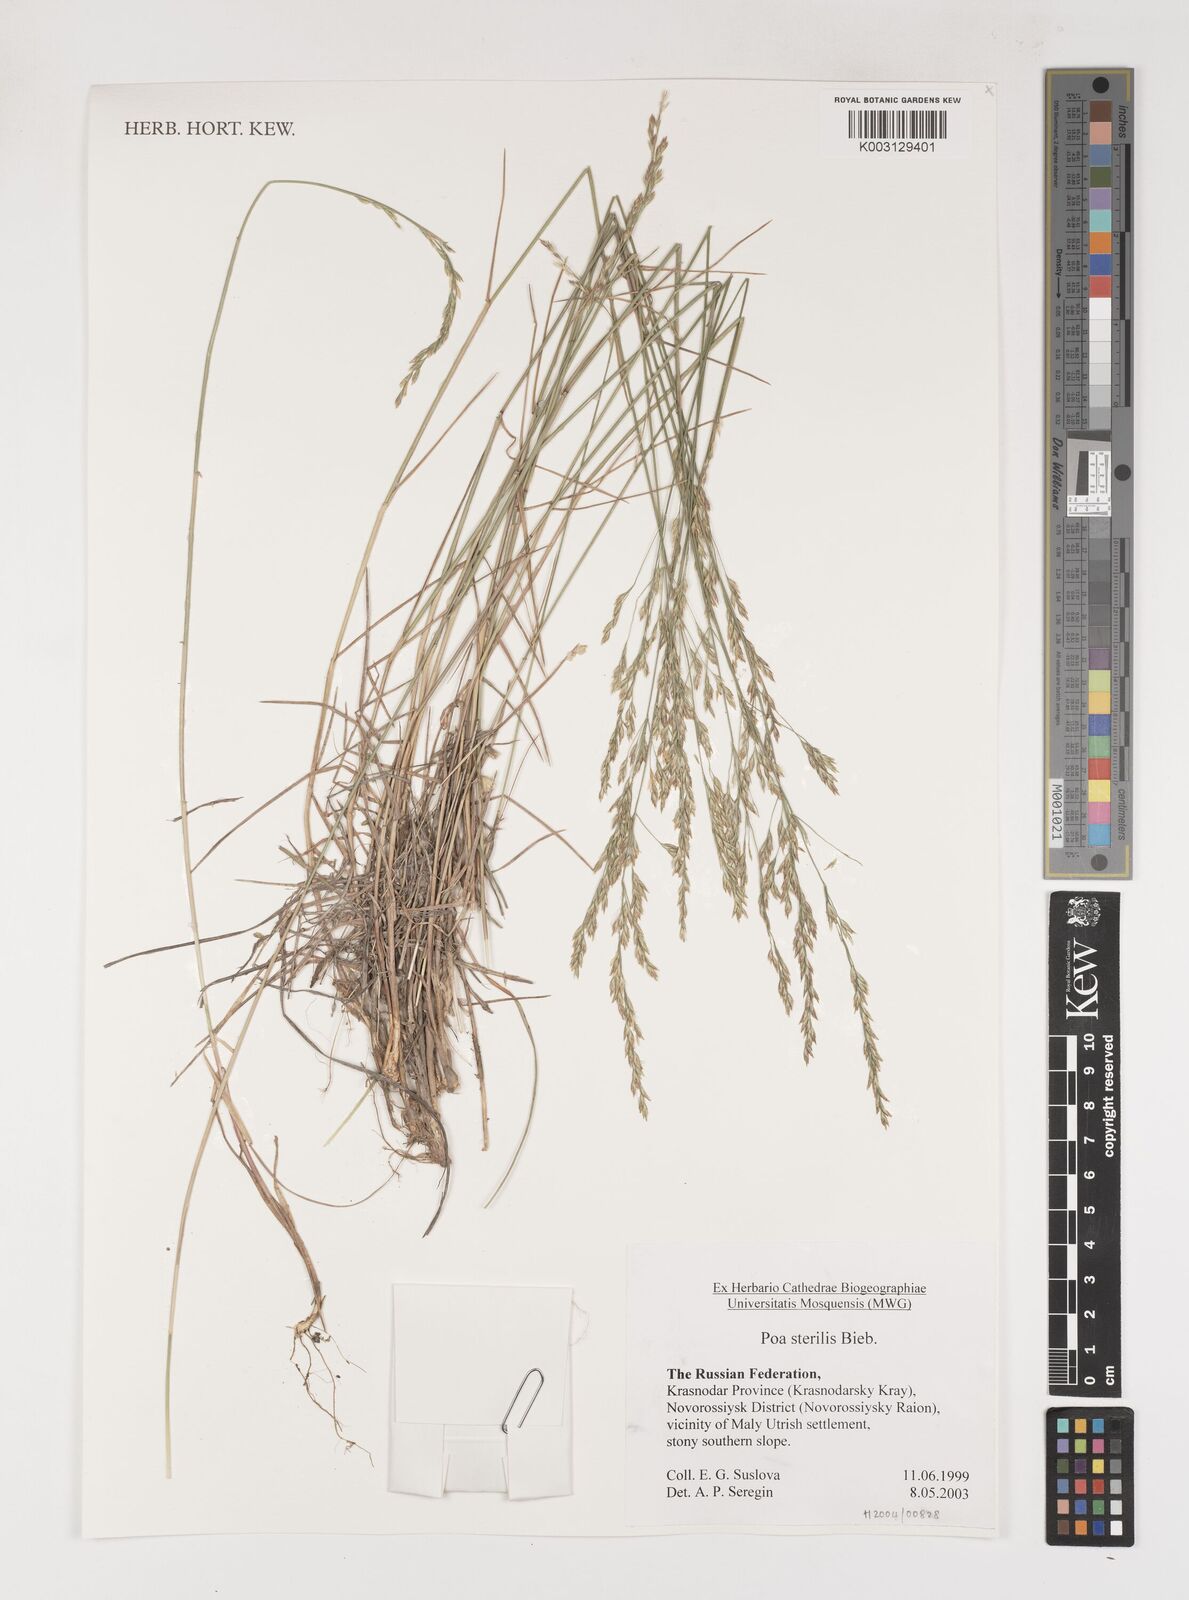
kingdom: Plantae
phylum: Tracheophyta
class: Liliopsida
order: Poales
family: Poaceae
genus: Poa
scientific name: Poa sterilis
